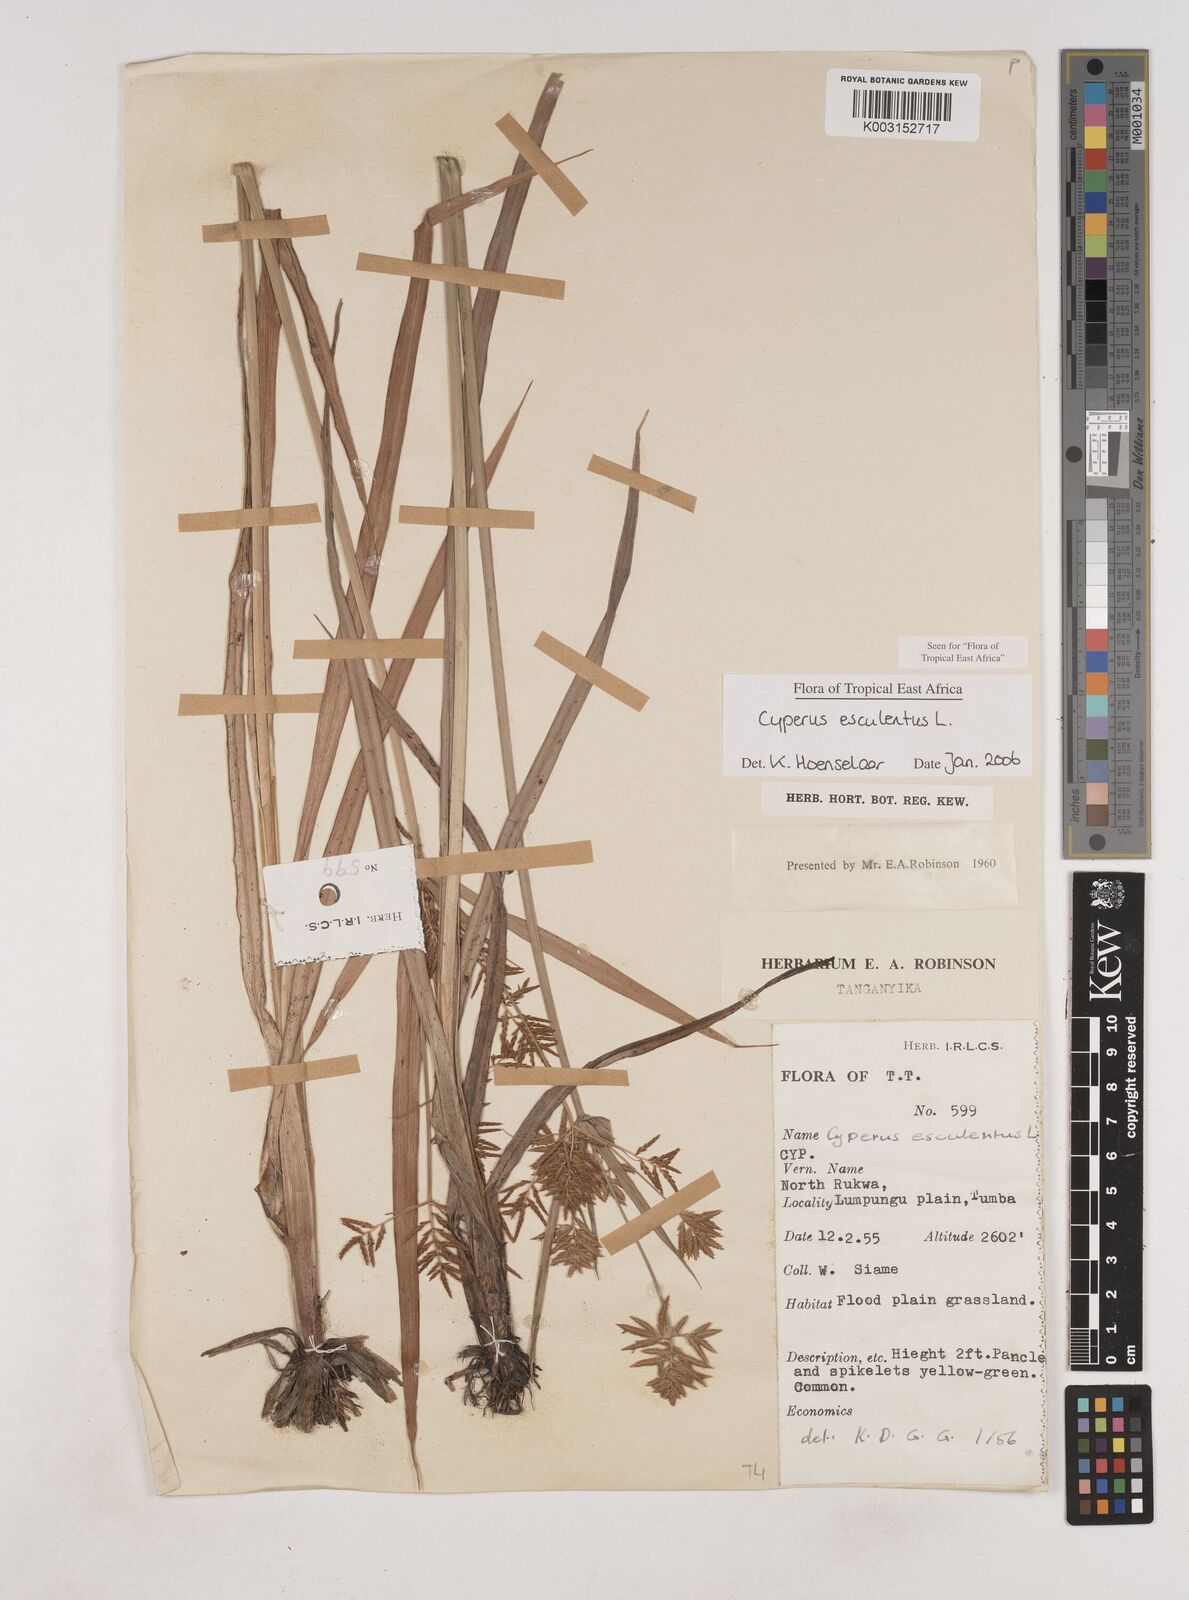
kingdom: Plantae
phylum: Tracheophyta
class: Liliopsida
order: Poales
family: Cyperaceae
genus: Cyperus
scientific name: Cyperus esculentus
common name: Yellow nutsedge
